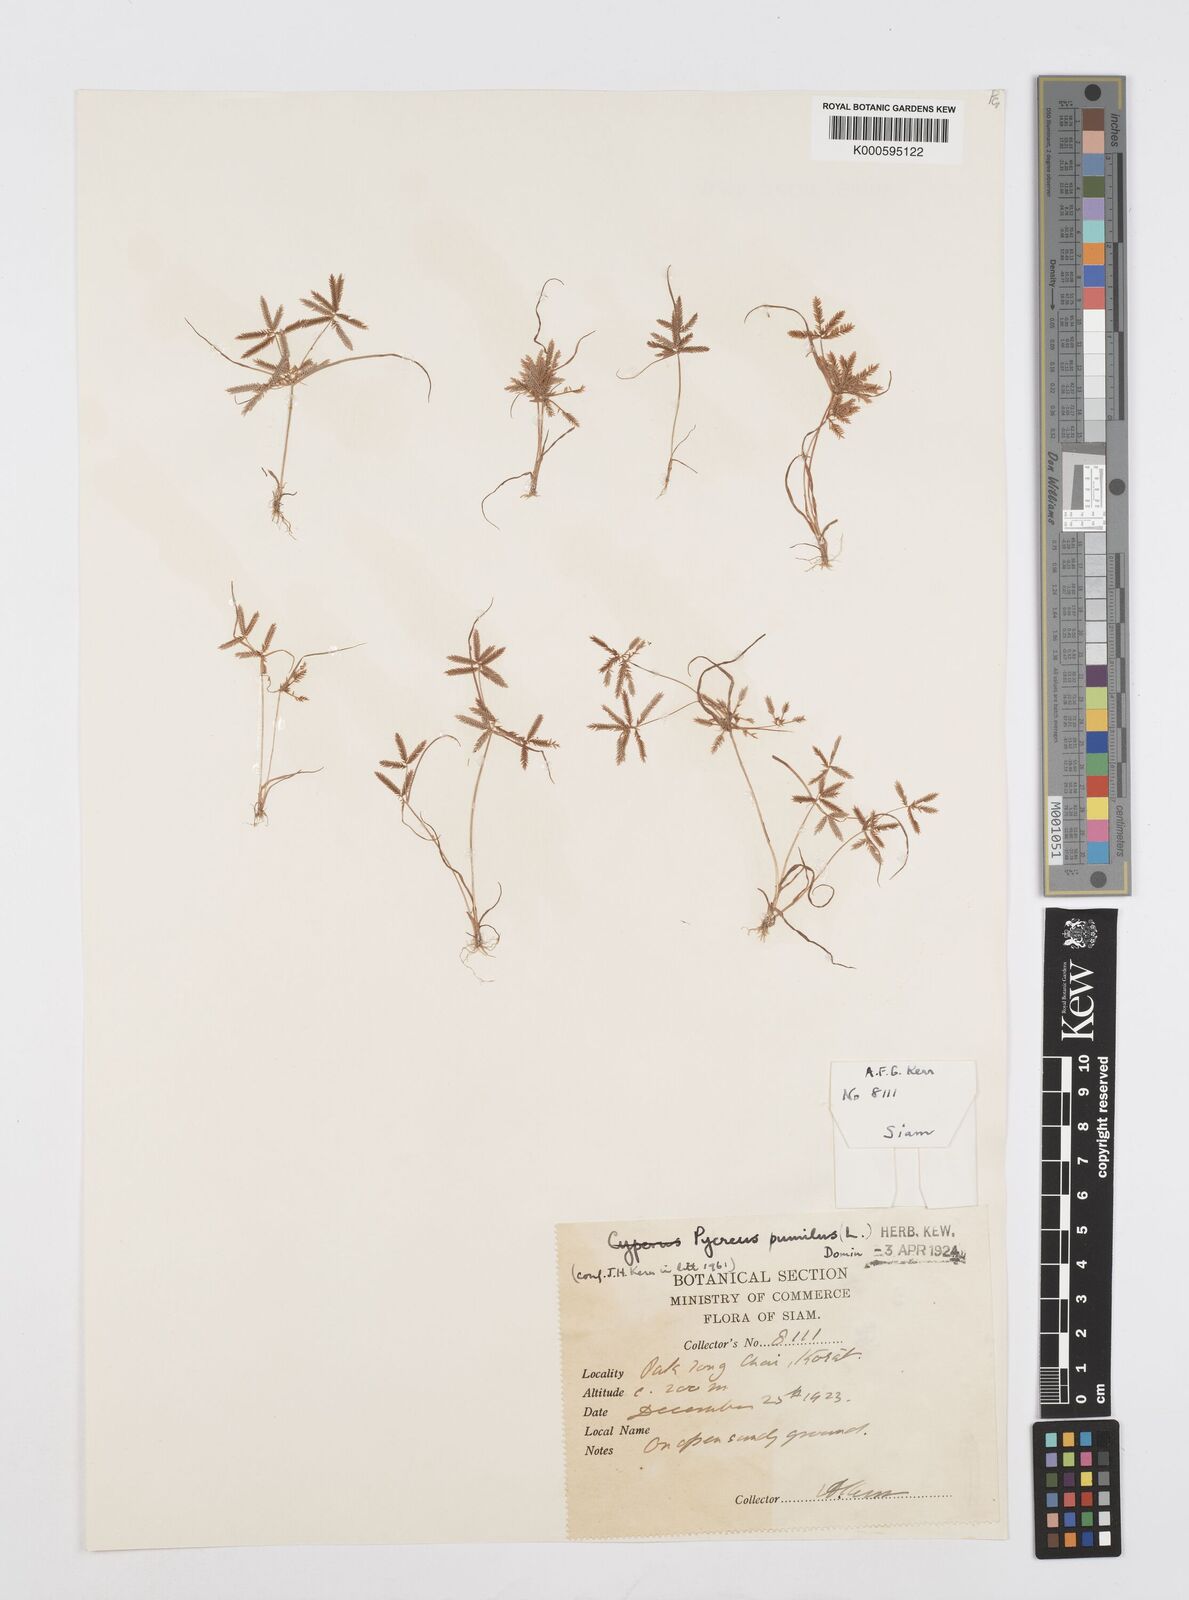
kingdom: Plantae
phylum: Tracheophyta
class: Liliopsida
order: Poales
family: Cyperaceae
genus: Cyperus
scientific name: Cyperus pumilus
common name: Low flatsedge
